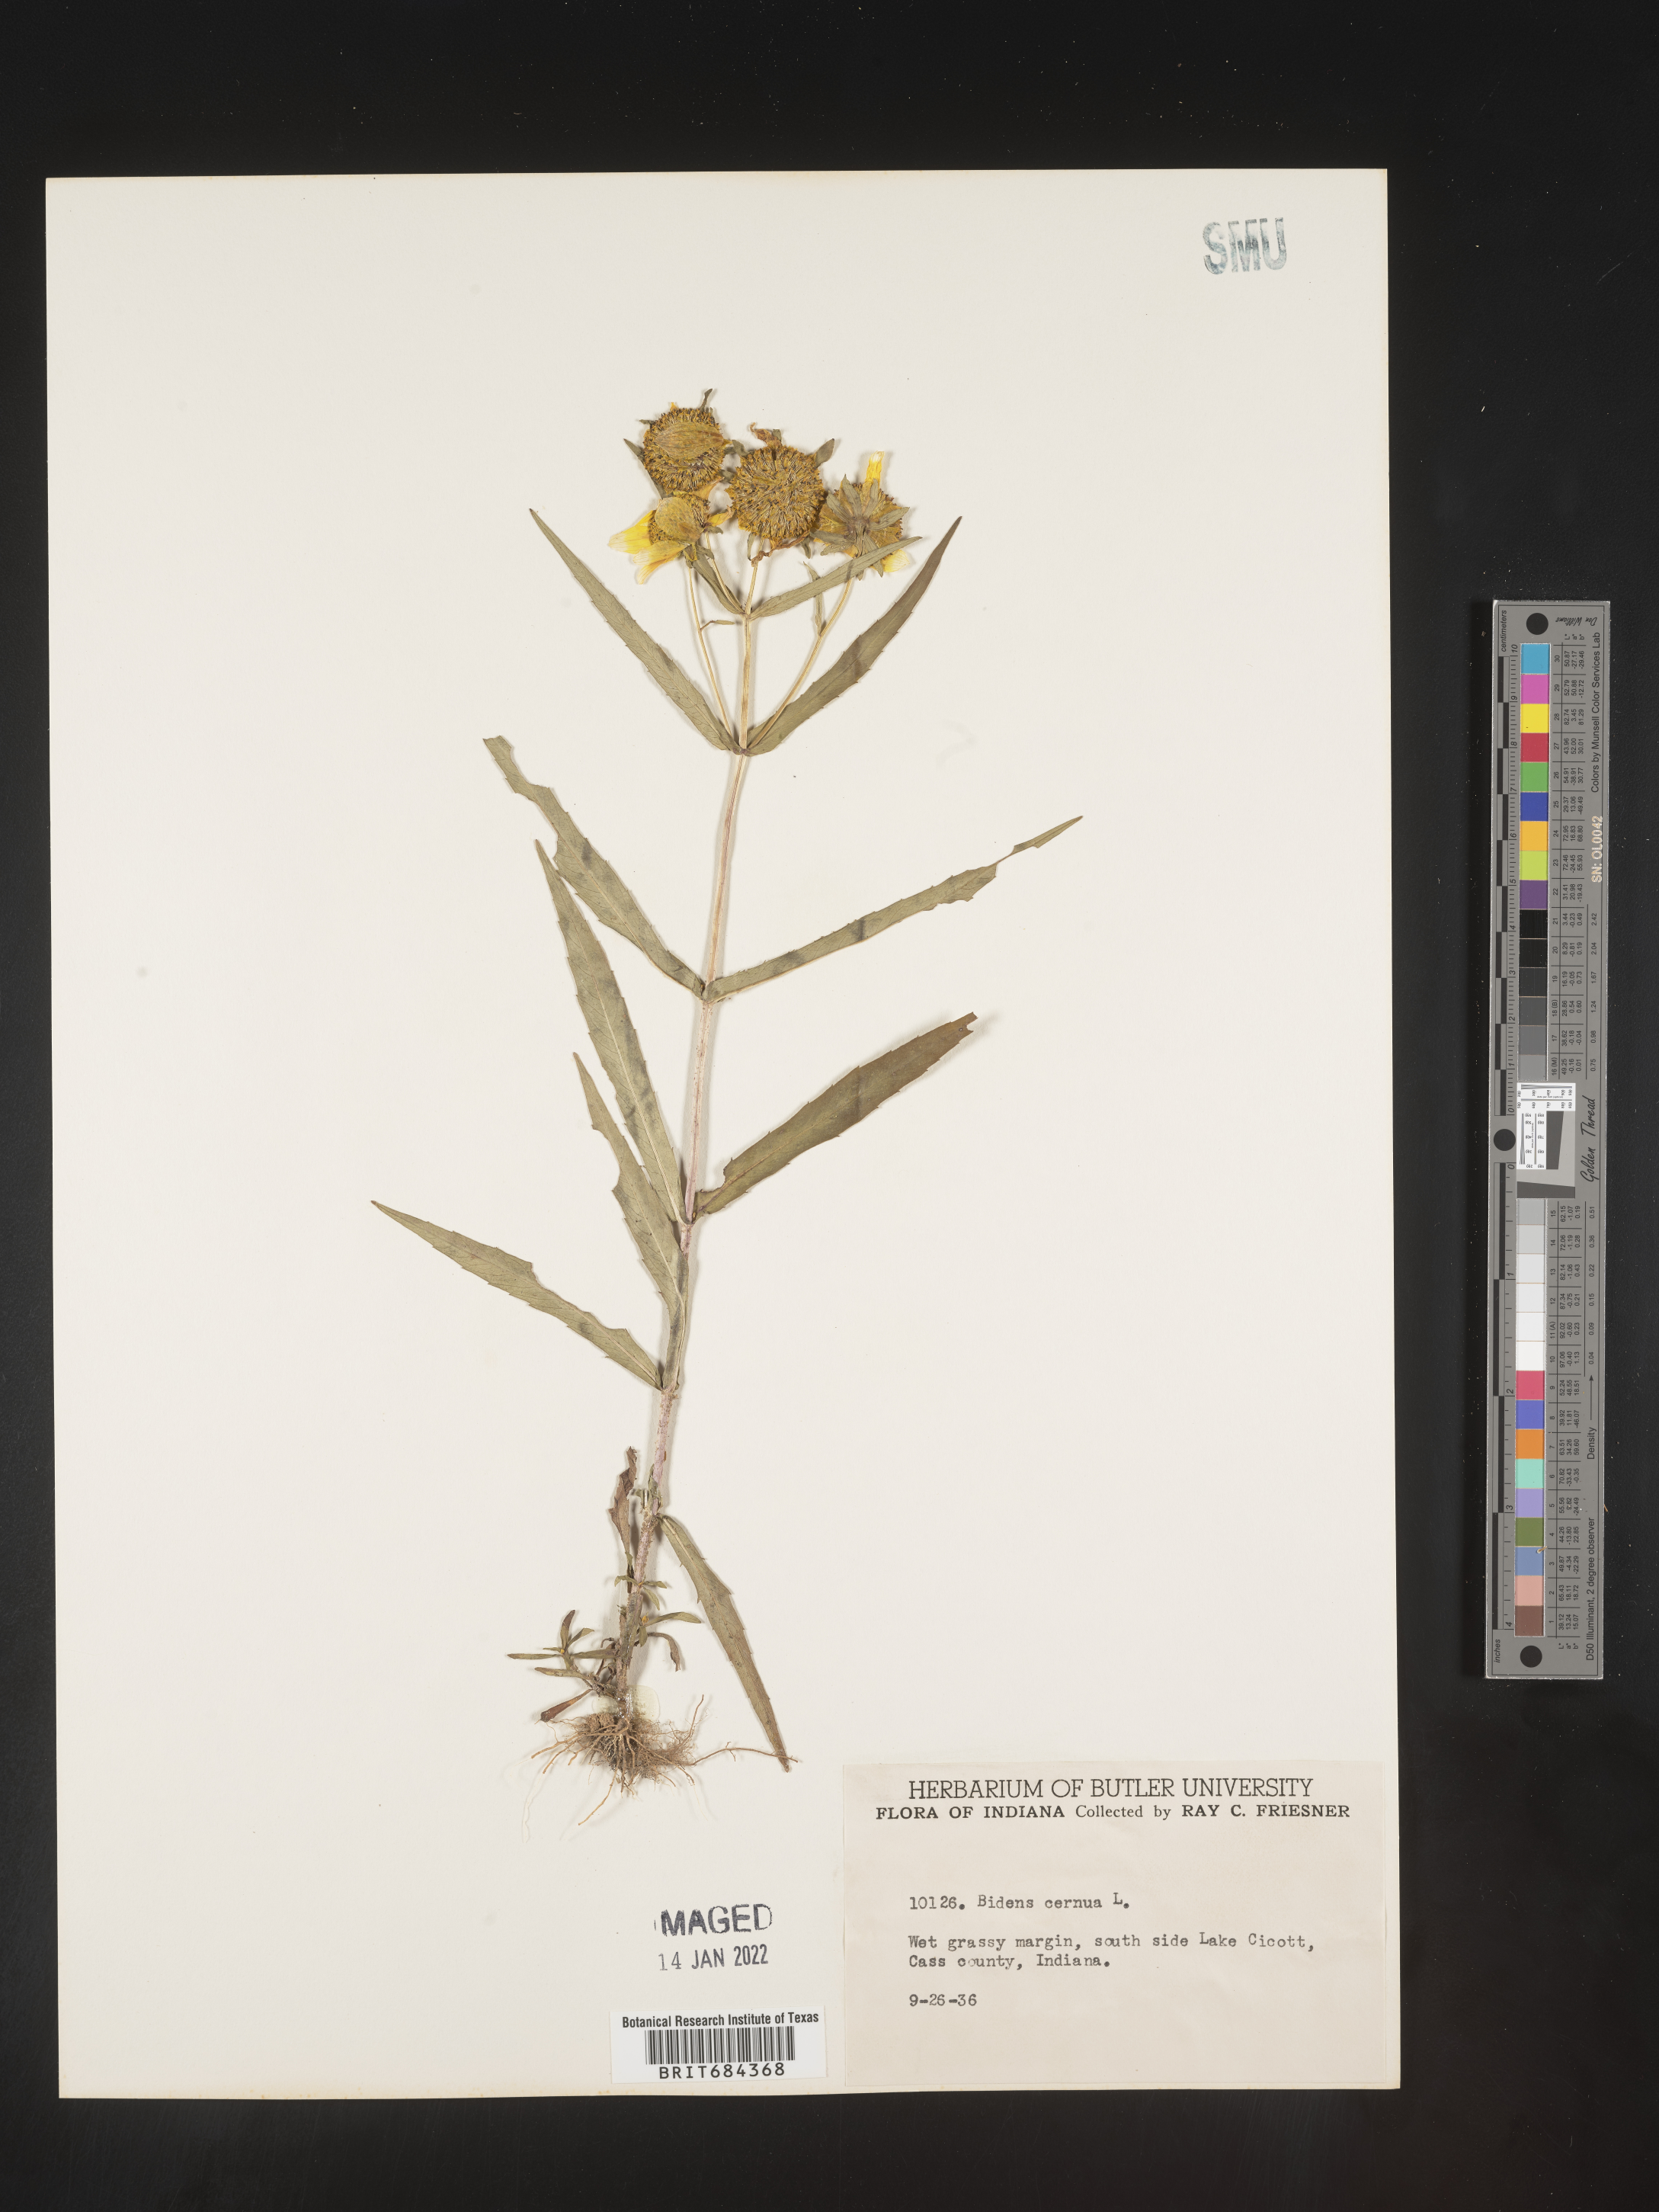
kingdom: Plantae
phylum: Tracheophyta
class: Magnoliopsida
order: Asterales
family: Asteraceae
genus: Bidens
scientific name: Bidens cernua
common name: Nodding bur-marigold
